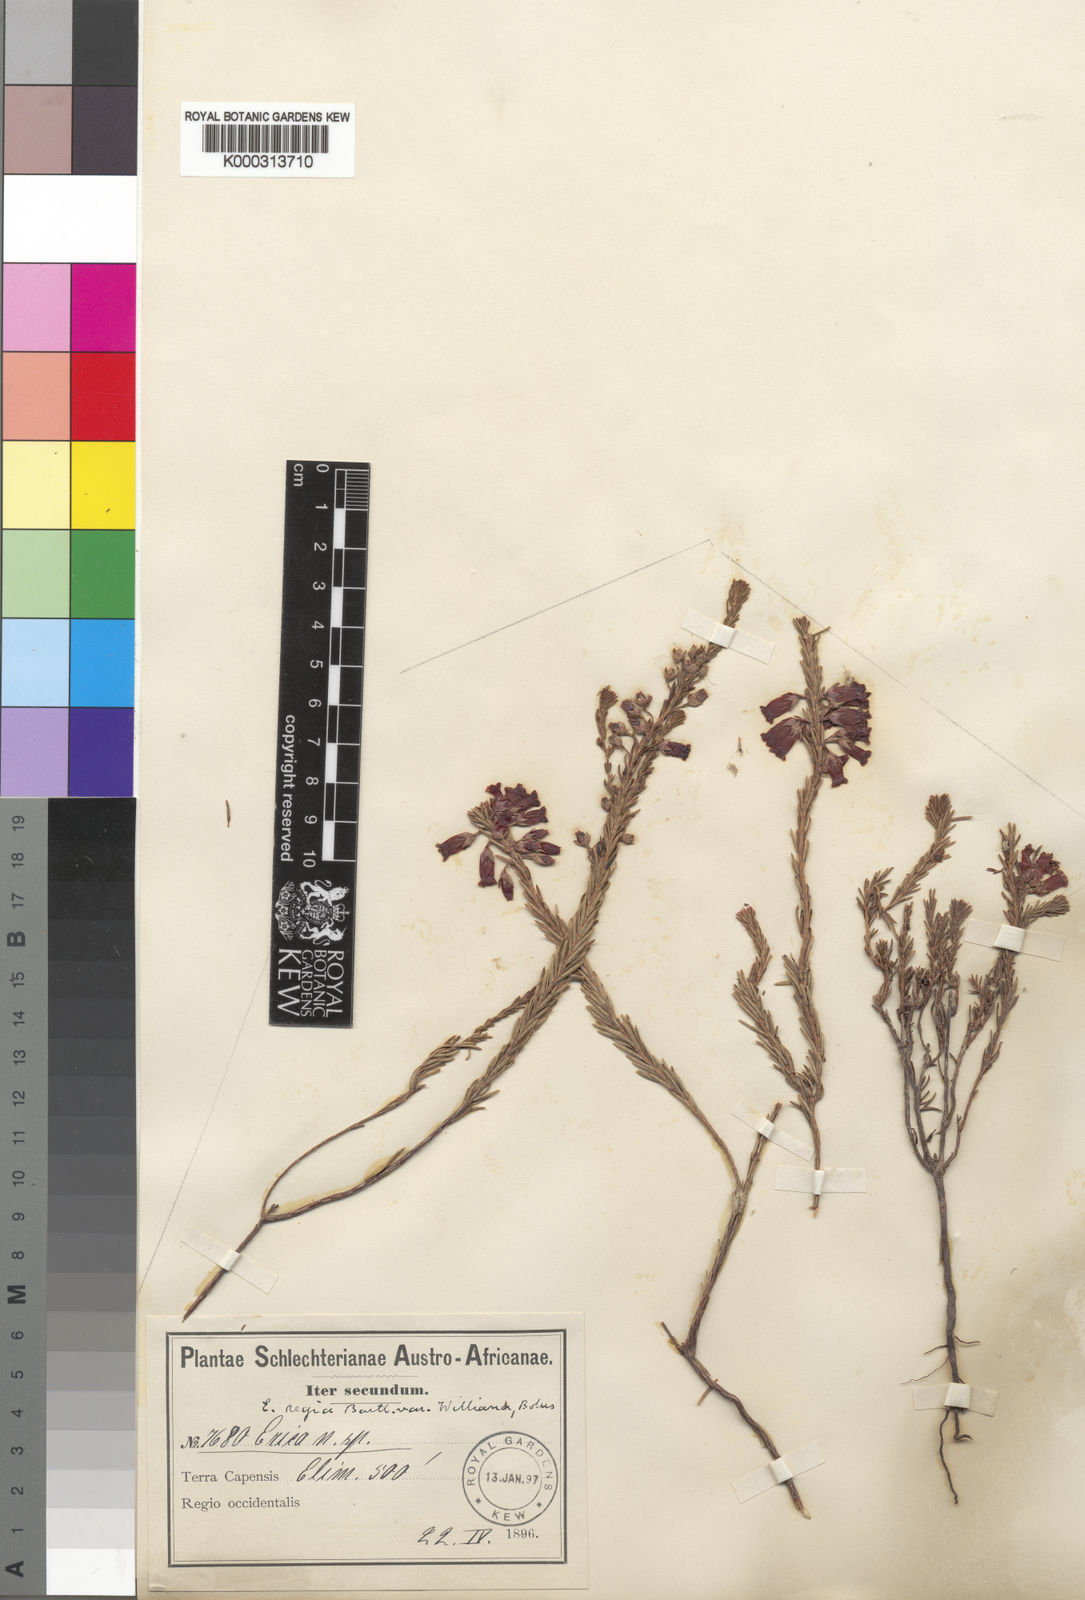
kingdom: Plantae
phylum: Tracheophyta
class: Magnoliopsida
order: Ericales
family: Ericaceae
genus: Erica
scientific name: Erica regia
